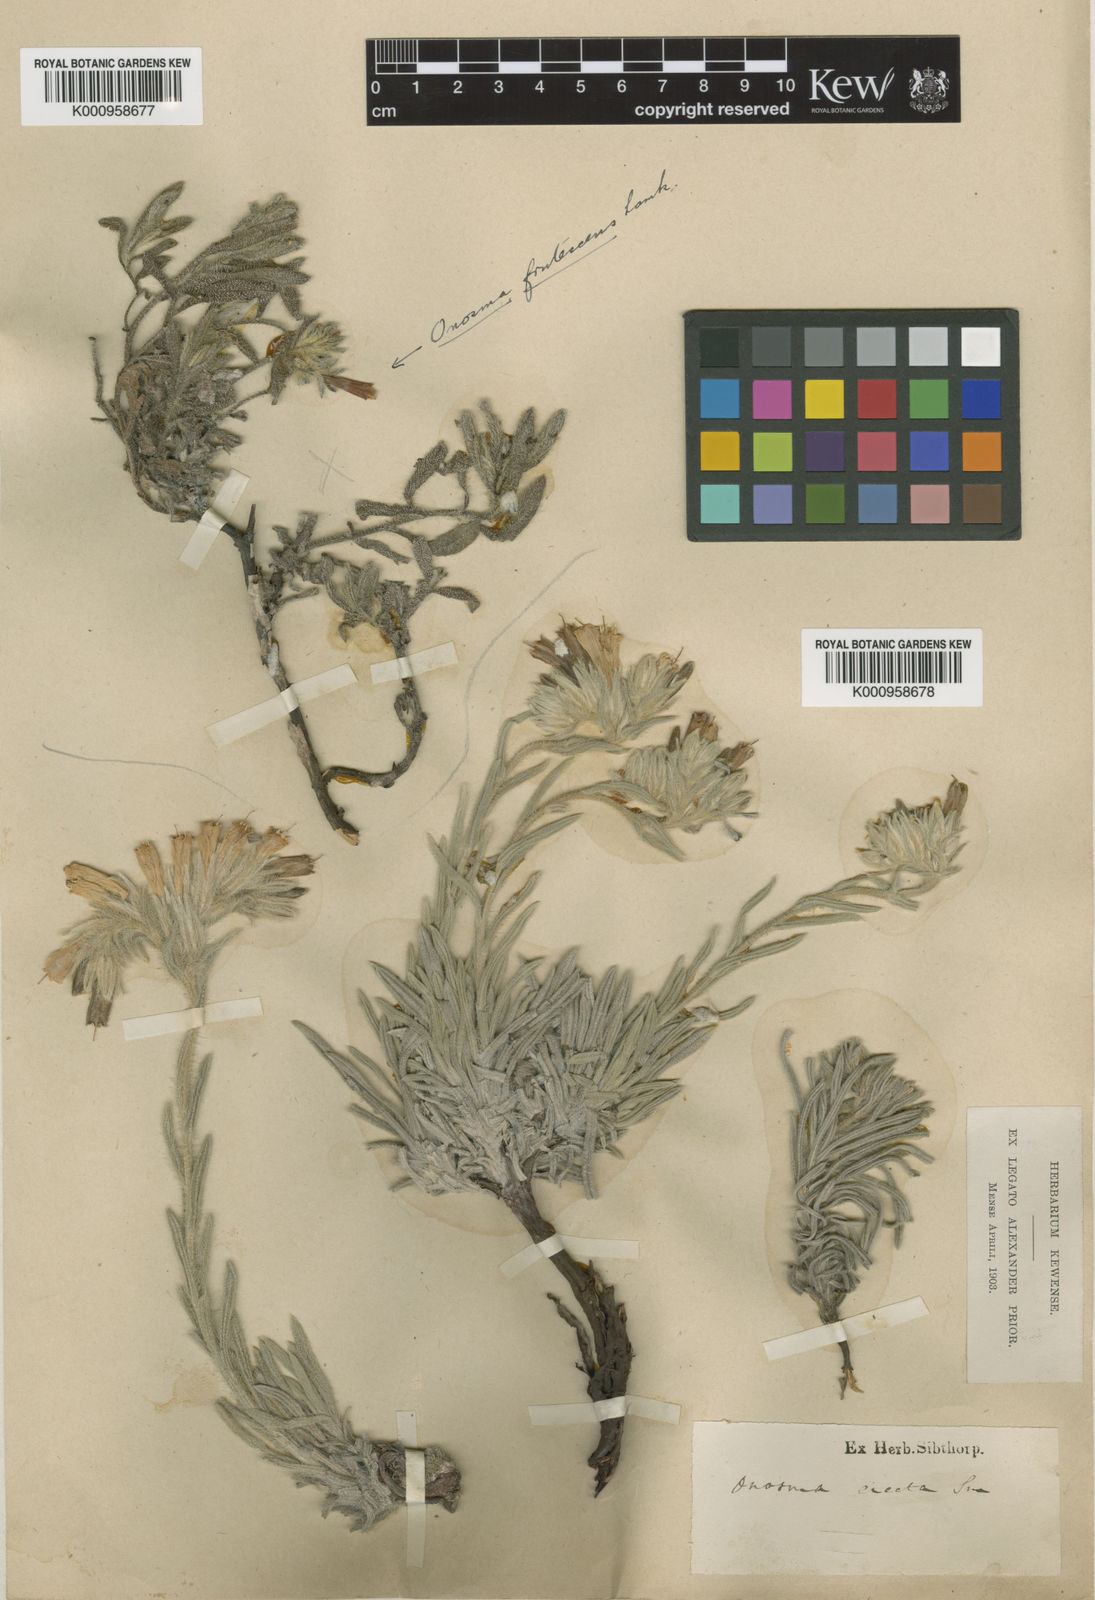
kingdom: Plantae
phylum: Tracheophyta
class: Magnoliopsida
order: Boraginales
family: Boraginaceae
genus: Onosma
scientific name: Onosma erecta
